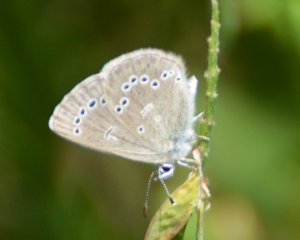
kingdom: Animalia
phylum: Arthropoda
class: Insecta
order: Lepidoptera
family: Lycaenidae
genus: Glaucopsyche
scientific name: Glaucopsyche lygdamus
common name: Silvery Blue
